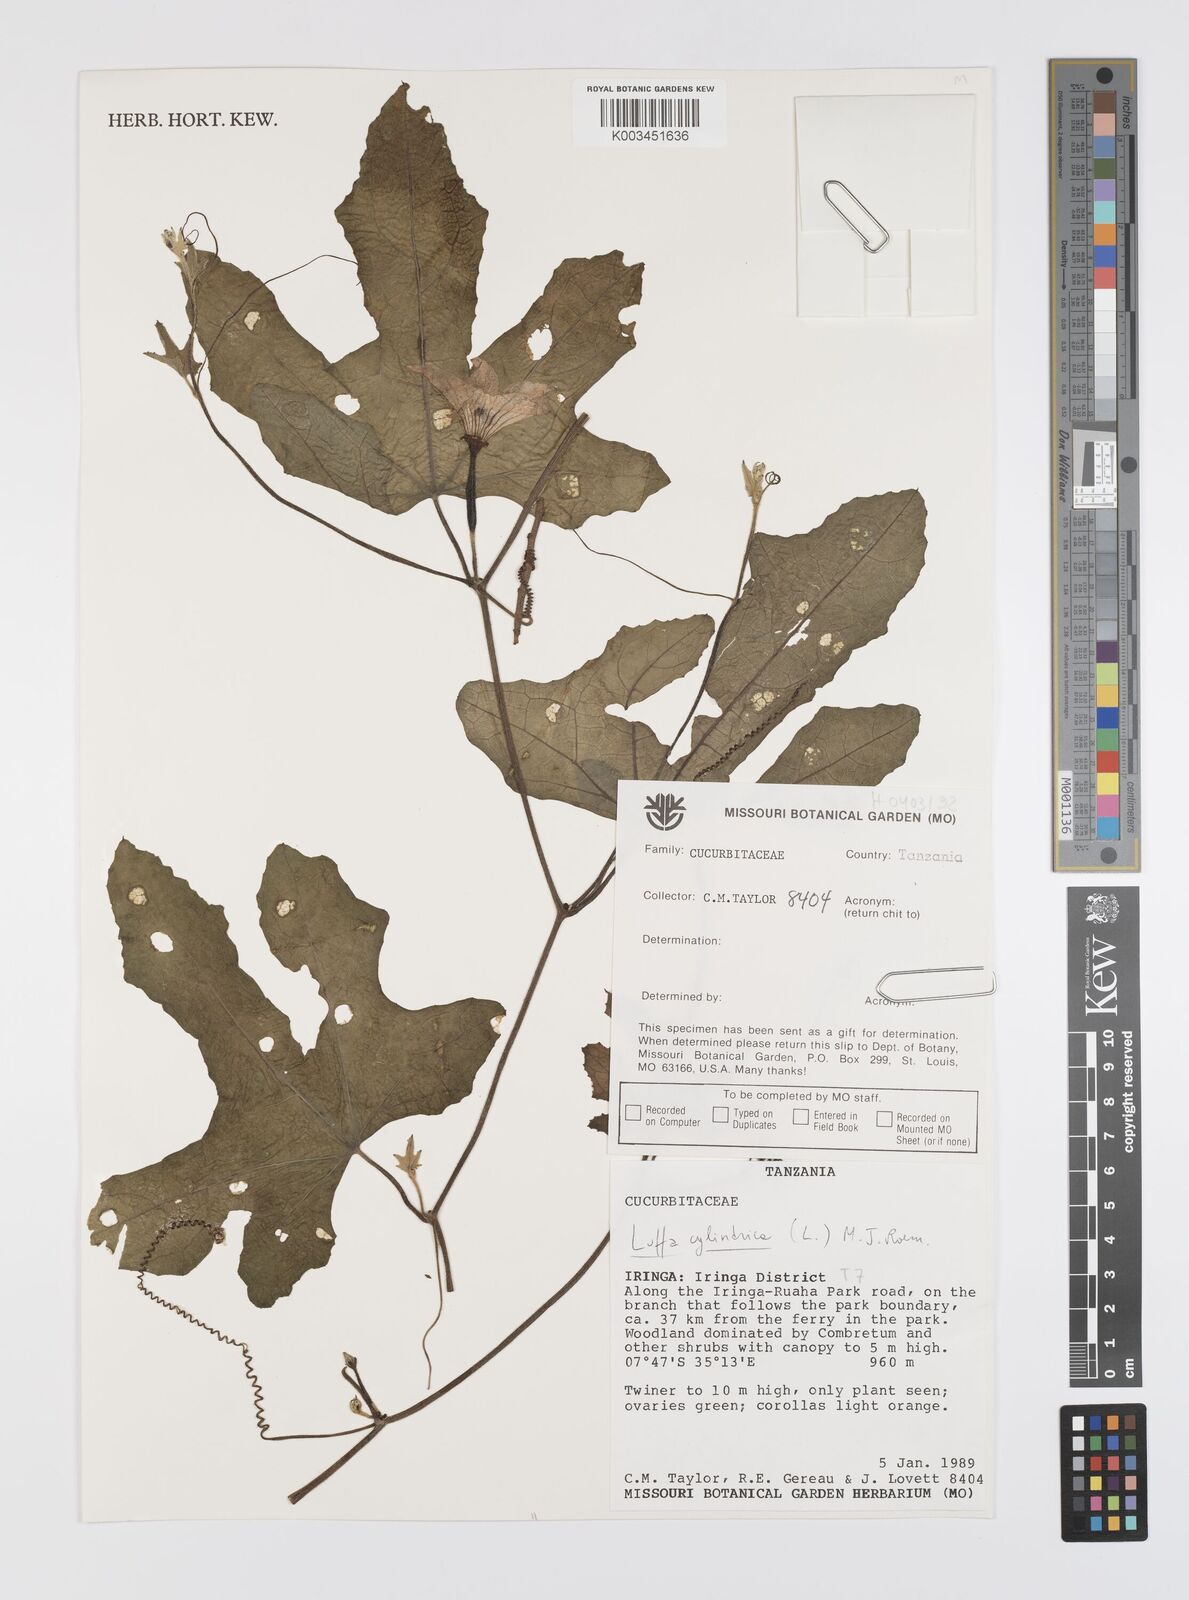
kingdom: Plantae
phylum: Tracheophyta
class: Magnoliopsida
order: Cucurbitales
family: Cucurbitaceae
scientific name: Cucurbitaceae
